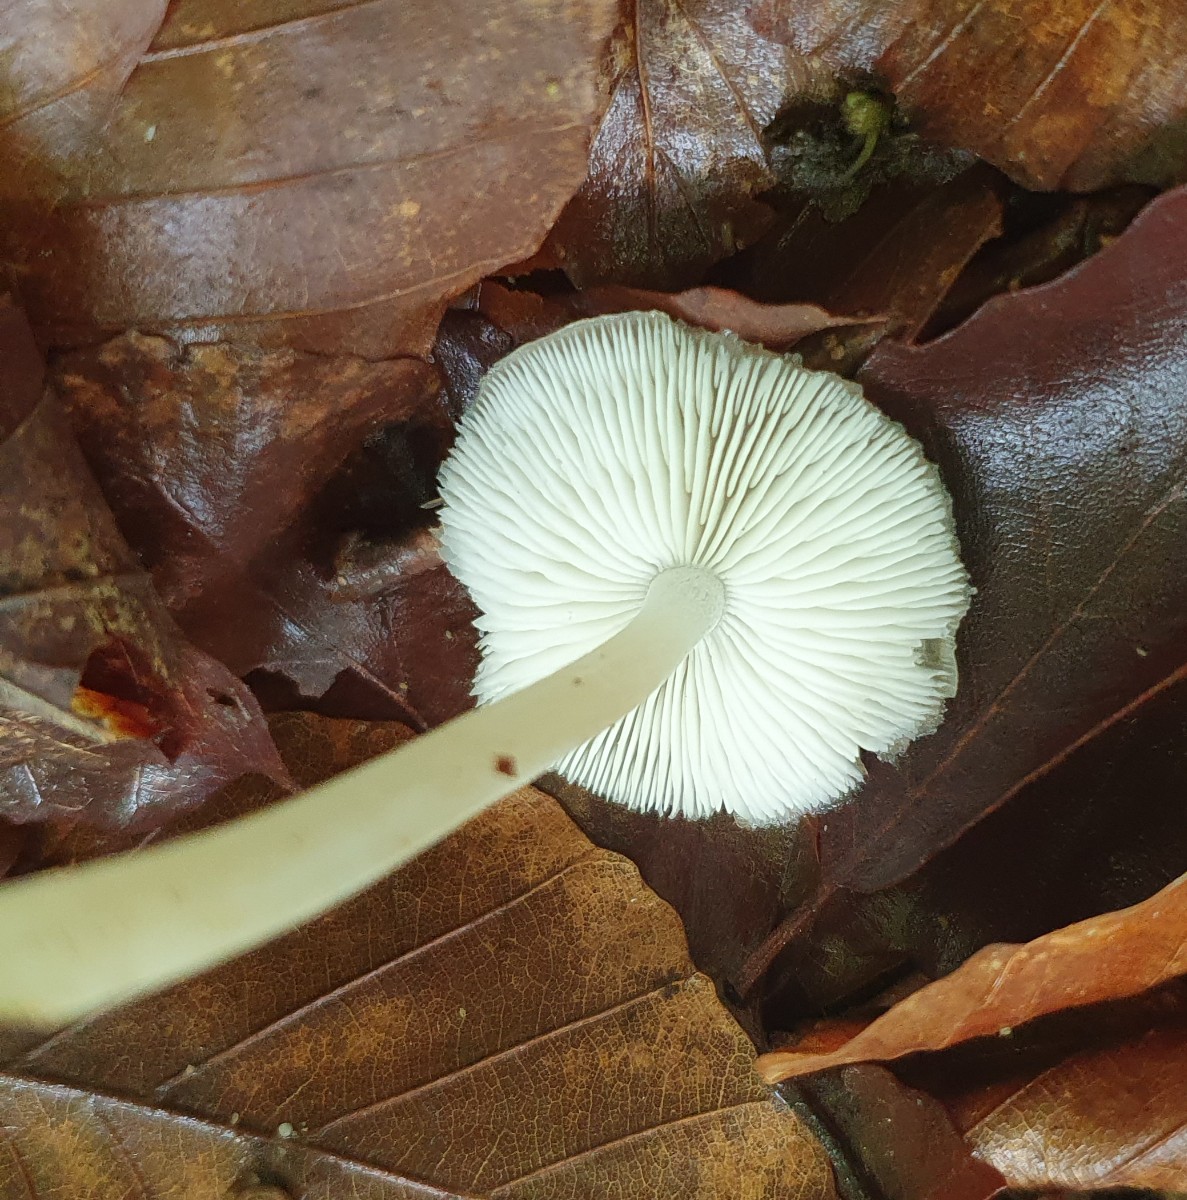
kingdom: Fungi
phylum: Basidiomycota
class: Agaricomycetes
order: Agaricales
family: Porotheleaceae
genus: Hydropodia
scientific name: Hydropodia subalpina
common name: vår-fnugfod
